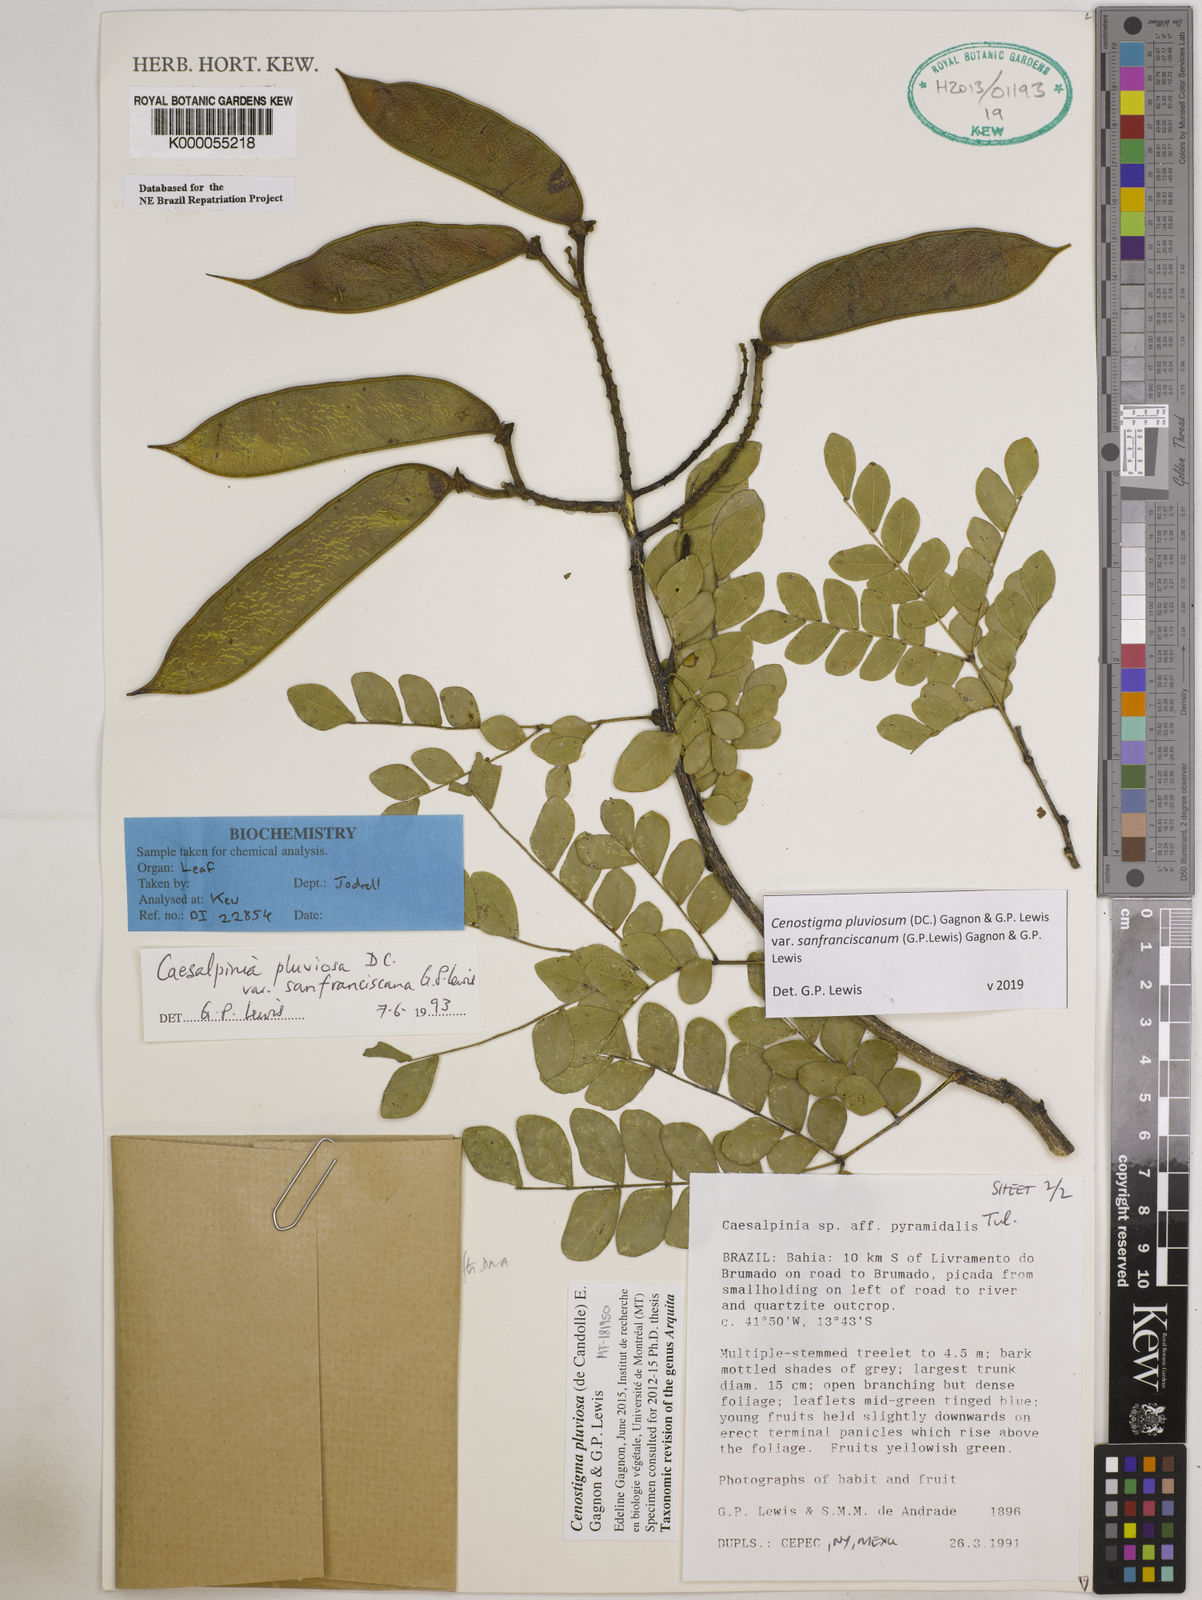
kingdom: Plantae
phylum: Tracheophyta
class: Magnoliopsida
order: Fabales
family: Fabaceae
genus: Cenostigma
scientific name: Cenostigma pluviosum
